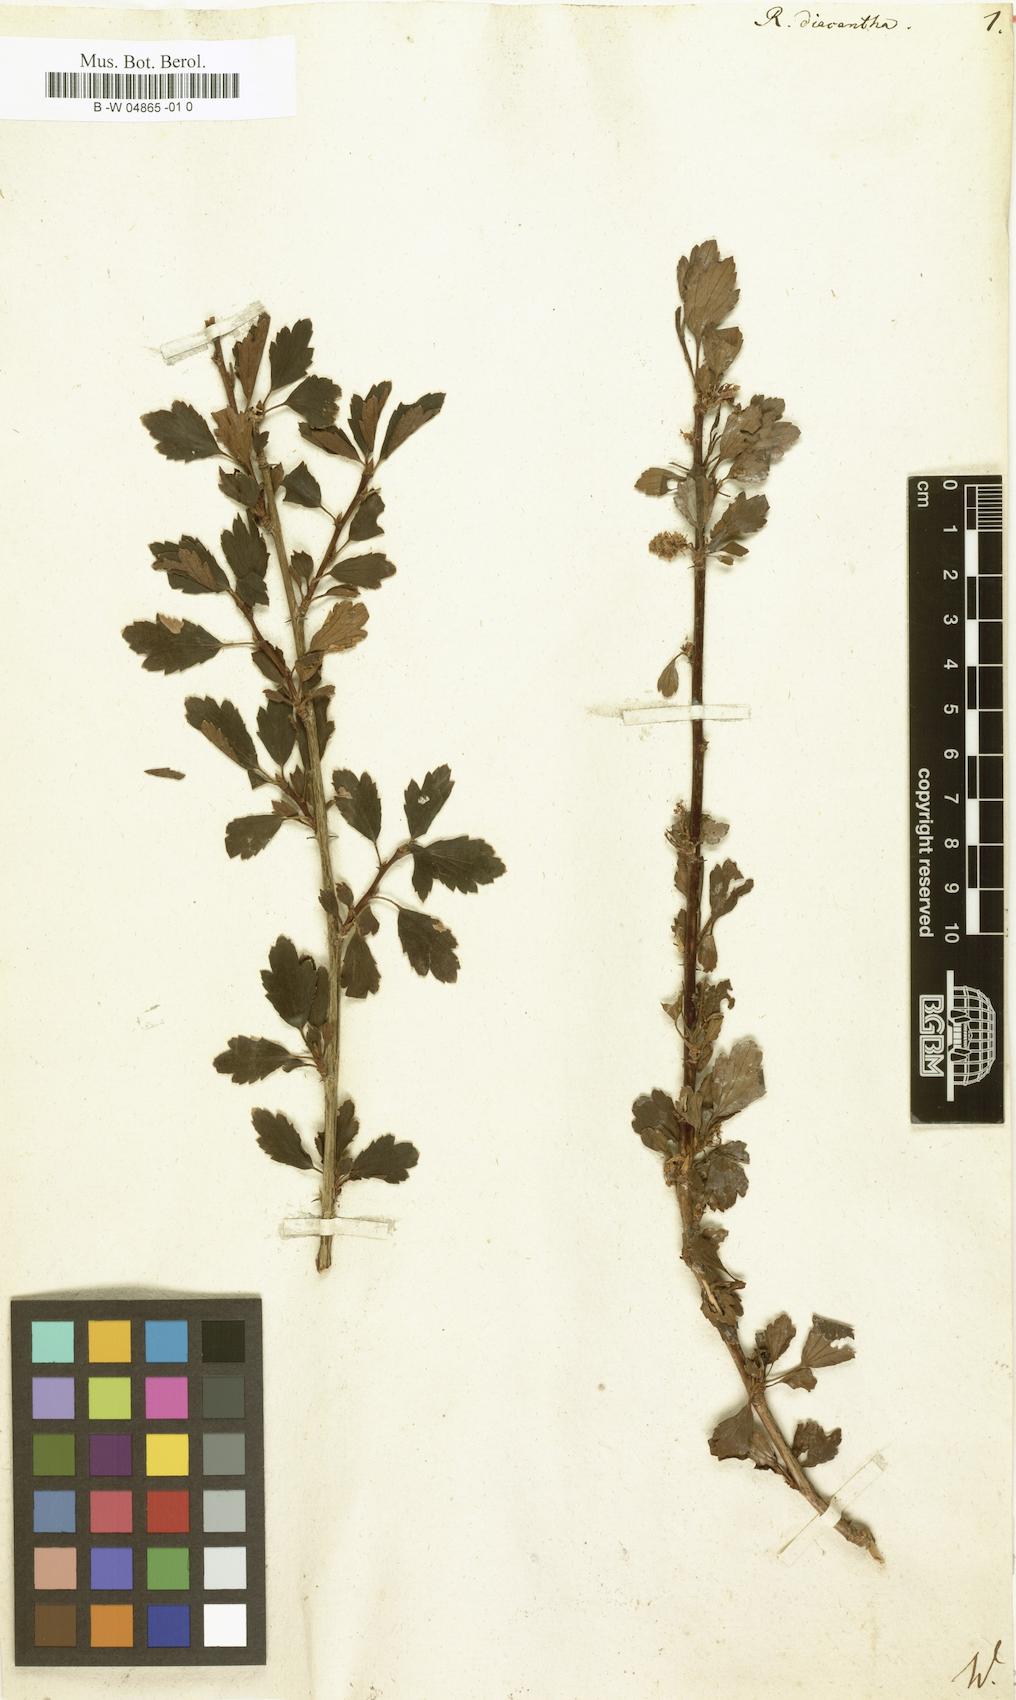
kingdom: Plantae
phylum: Tracheophyta
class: Magnoliopsida
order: Saxifragales
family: Grossulariaceae
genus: Ribes
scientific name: Ribes diacanthum
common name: Siberian currant
